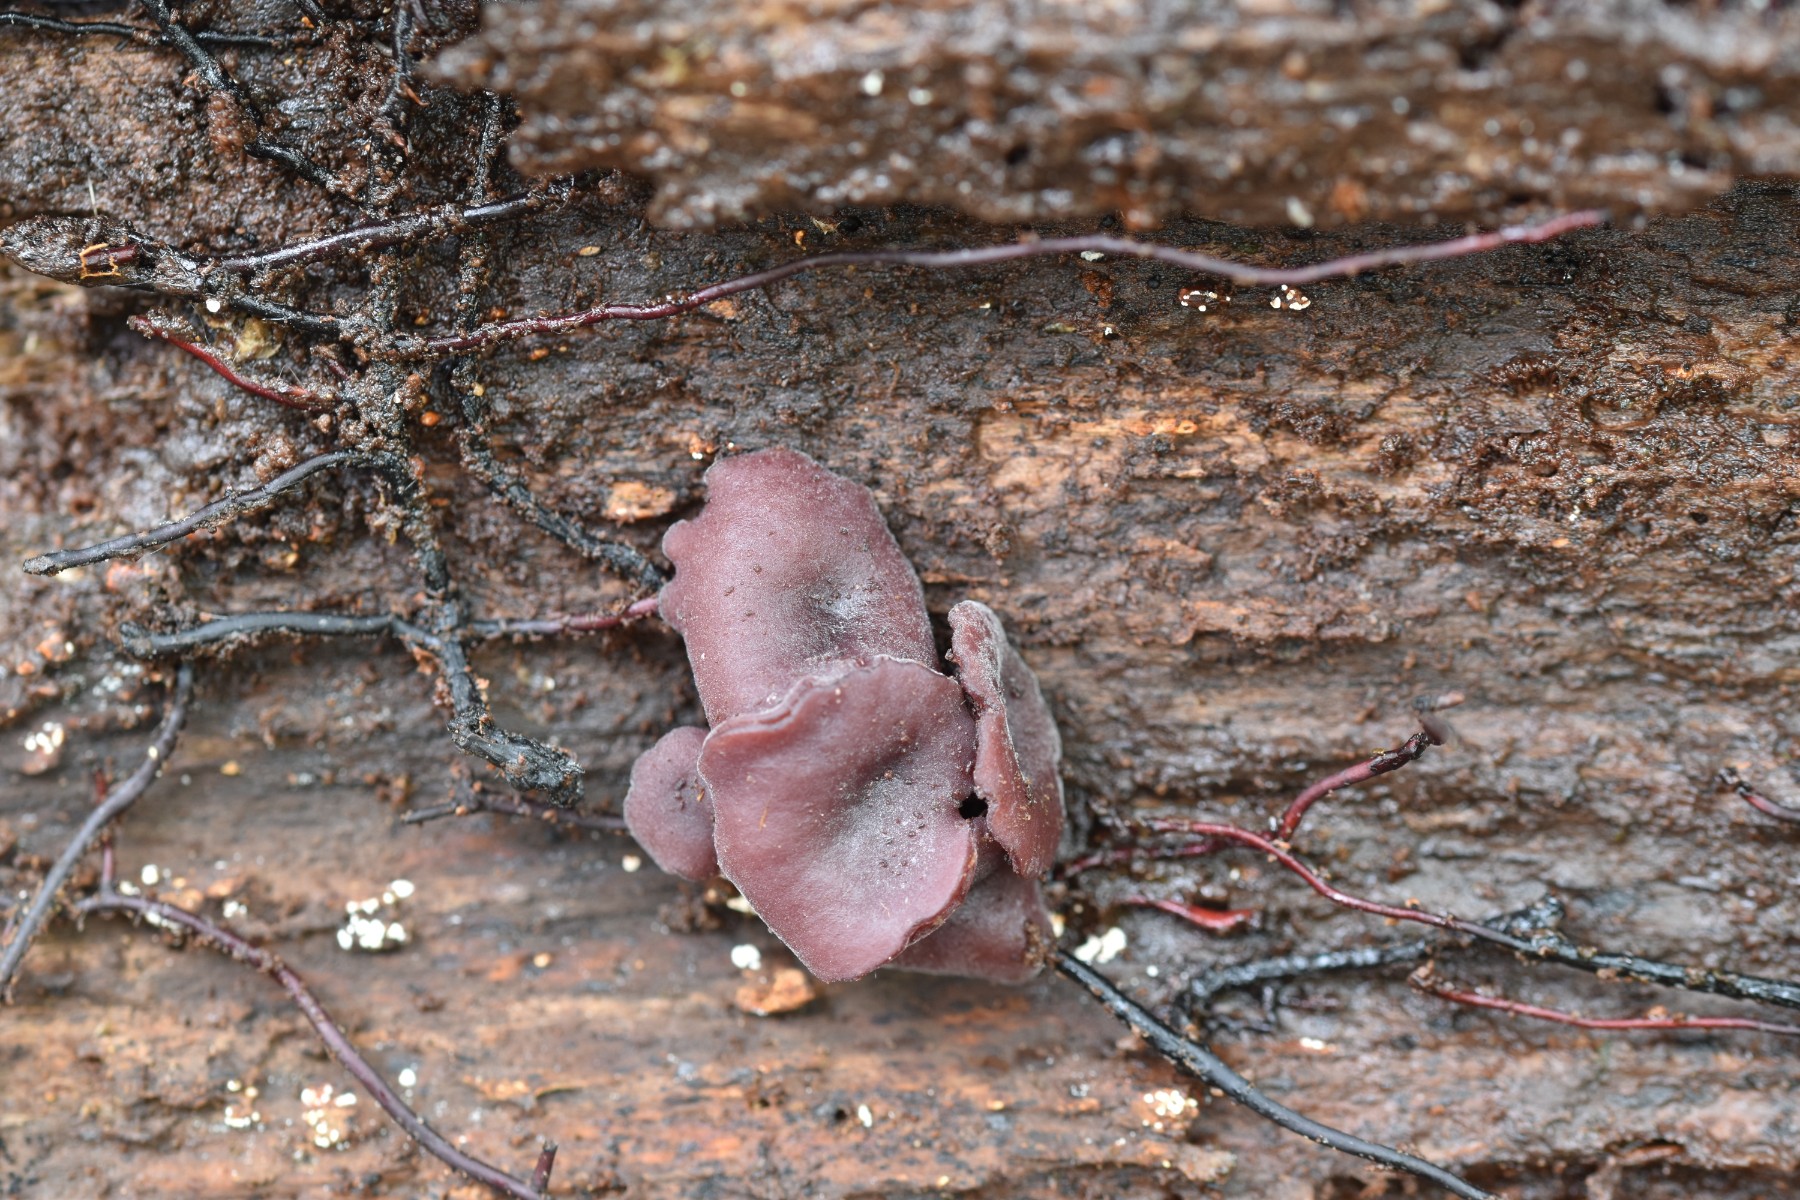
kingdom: Fungi
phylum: Ascomycota
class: Leotiomycetes
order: Helotiales
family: Gelatinodiscaceae
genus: Ascocoryne
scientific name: Ascocoryne cylichnium
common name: stor sejskive
